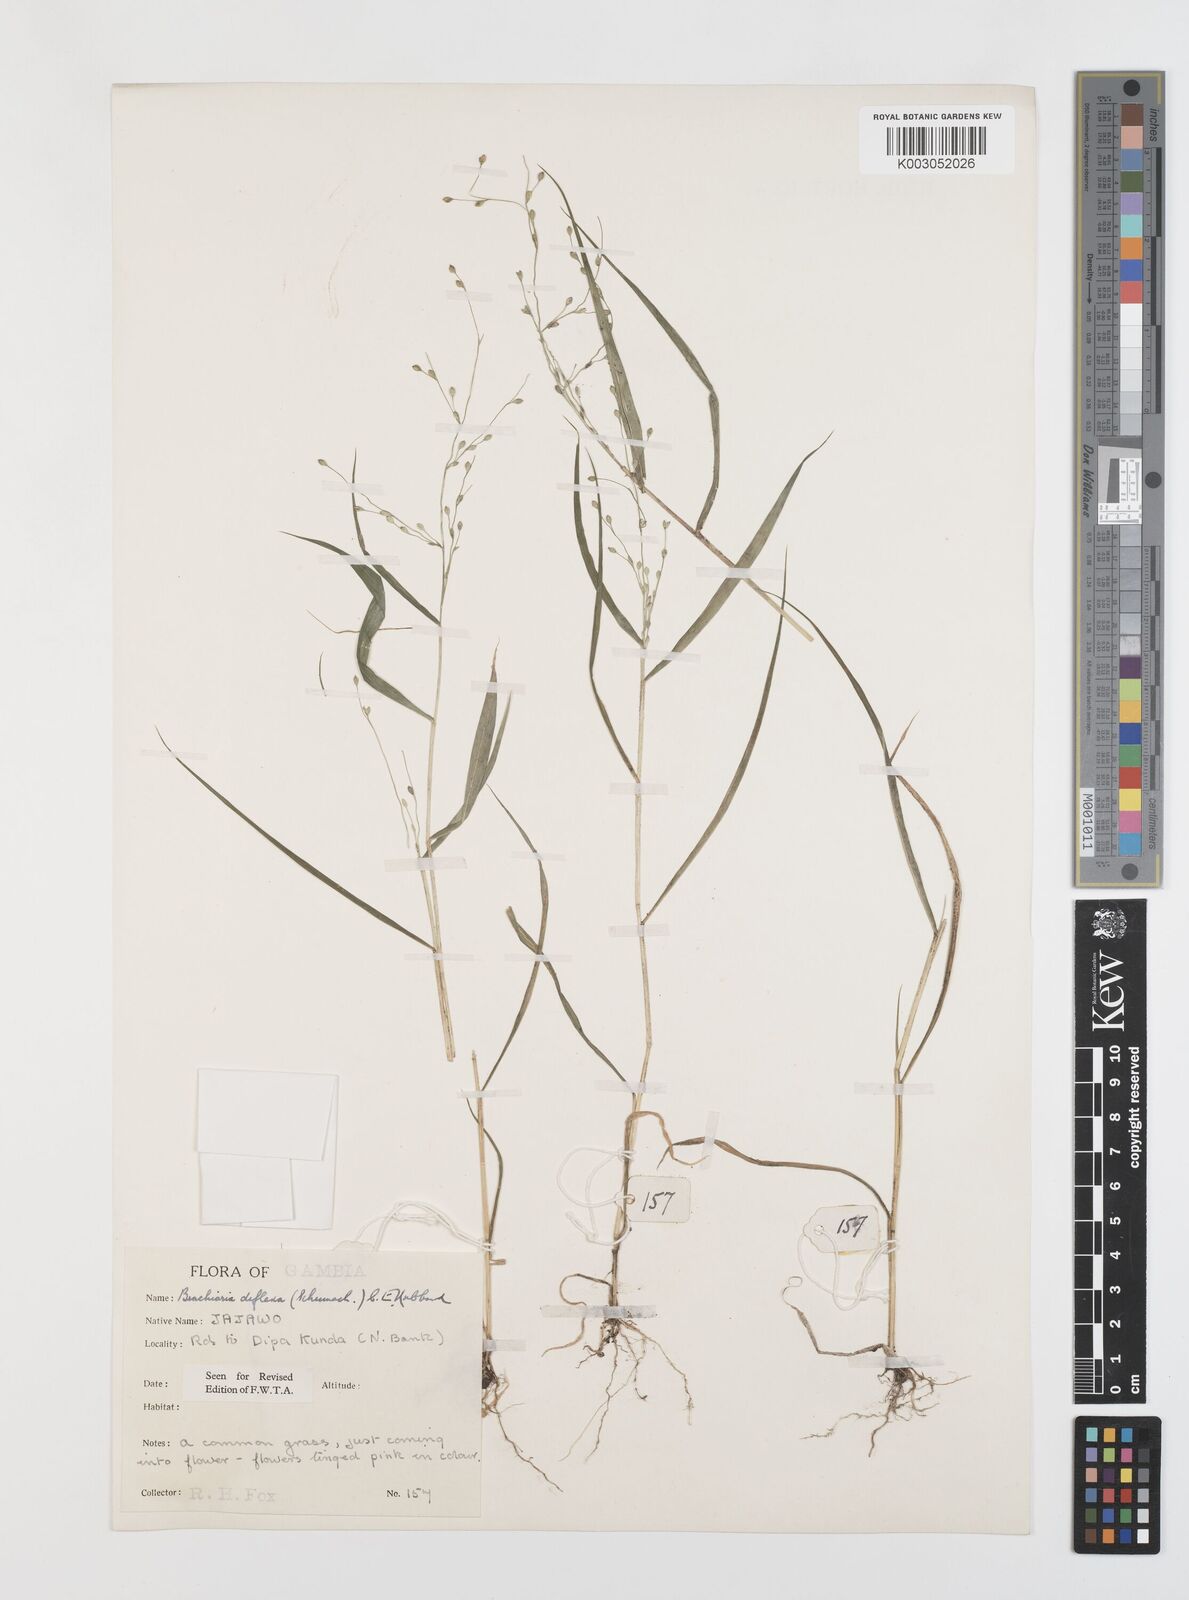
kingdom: Plantae
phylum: Tracheophyta
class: Liliopsida
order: Poales
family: Poaceae
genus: Urochloa
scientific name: Urochloa deflexa
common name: Guinea millet
